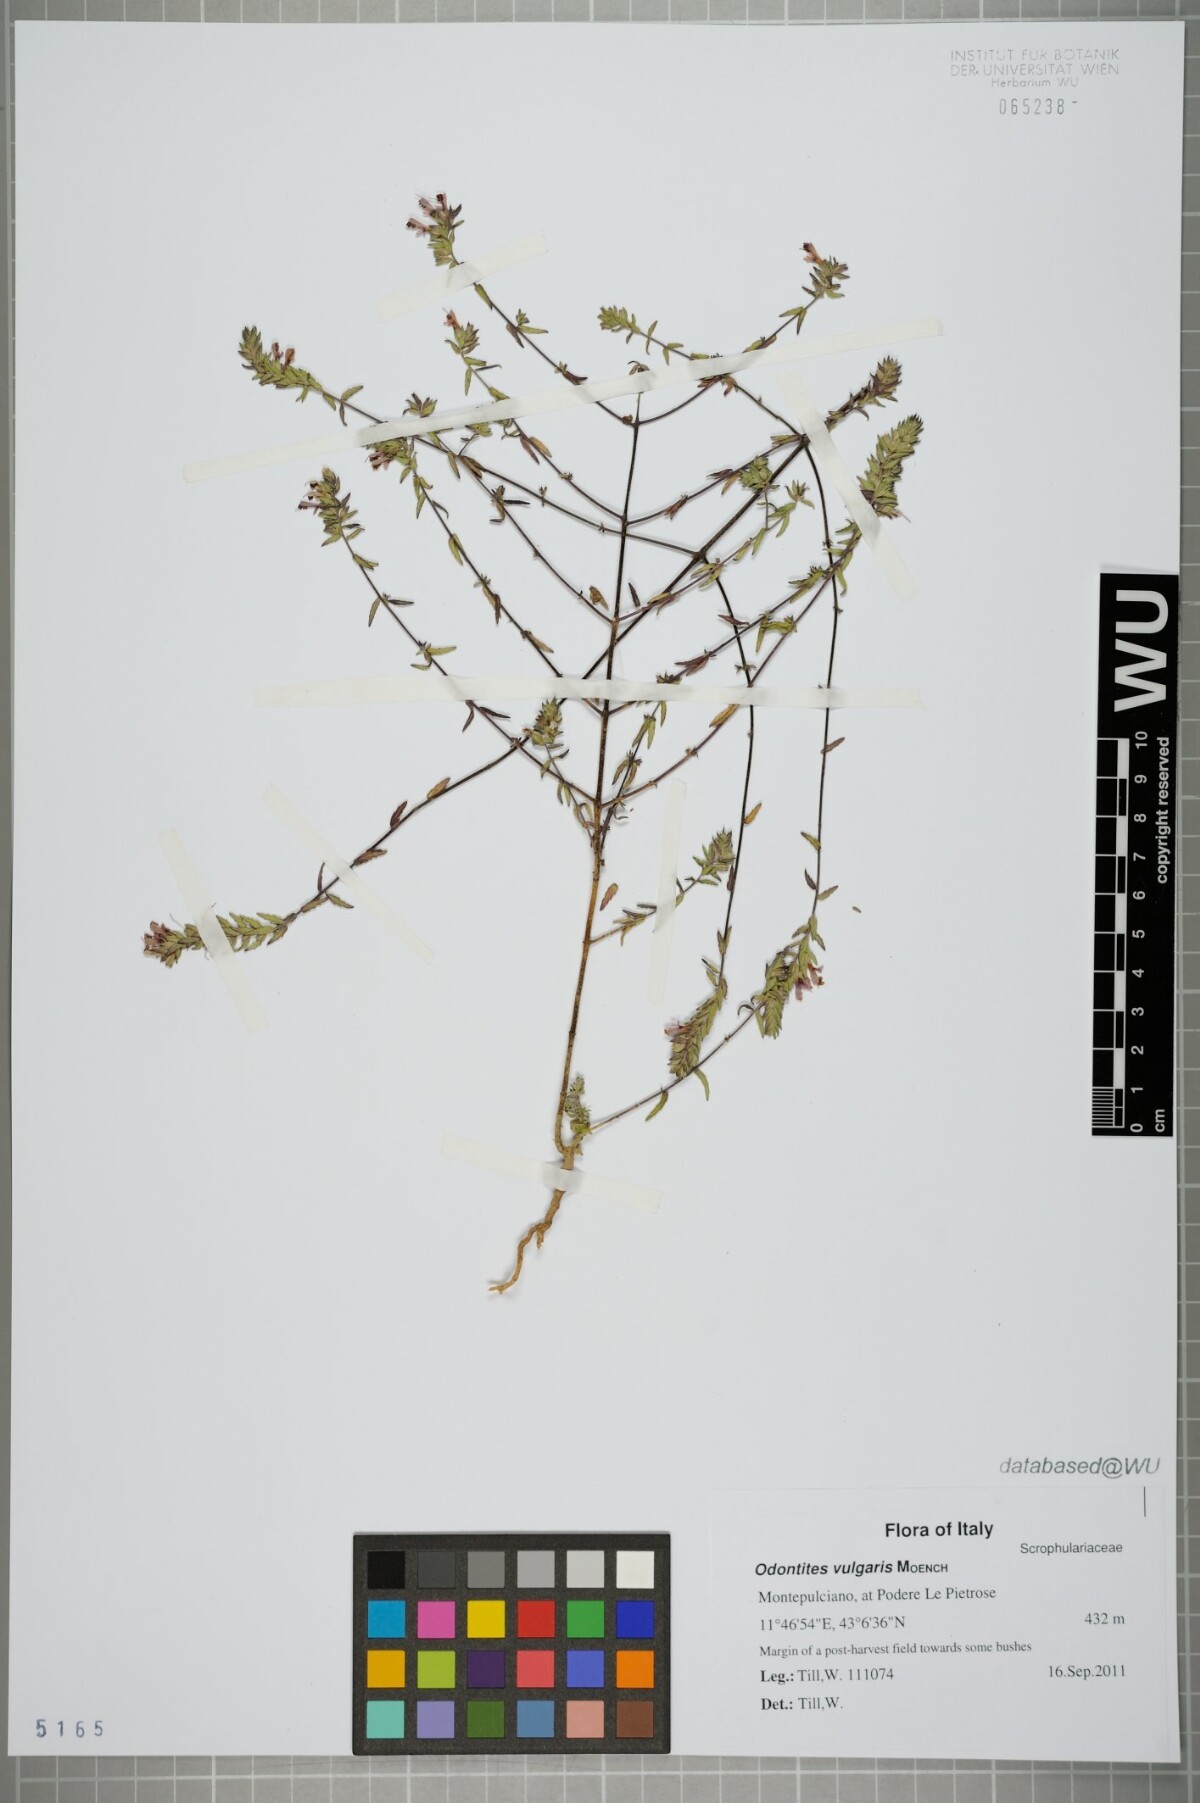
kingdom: Plantae
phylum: Tracheophyta
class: Magnoliopsida
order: Lamiales
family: Orobanchaceae
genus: Odontites
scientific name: Odontites vulgaris
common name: Broomrape
